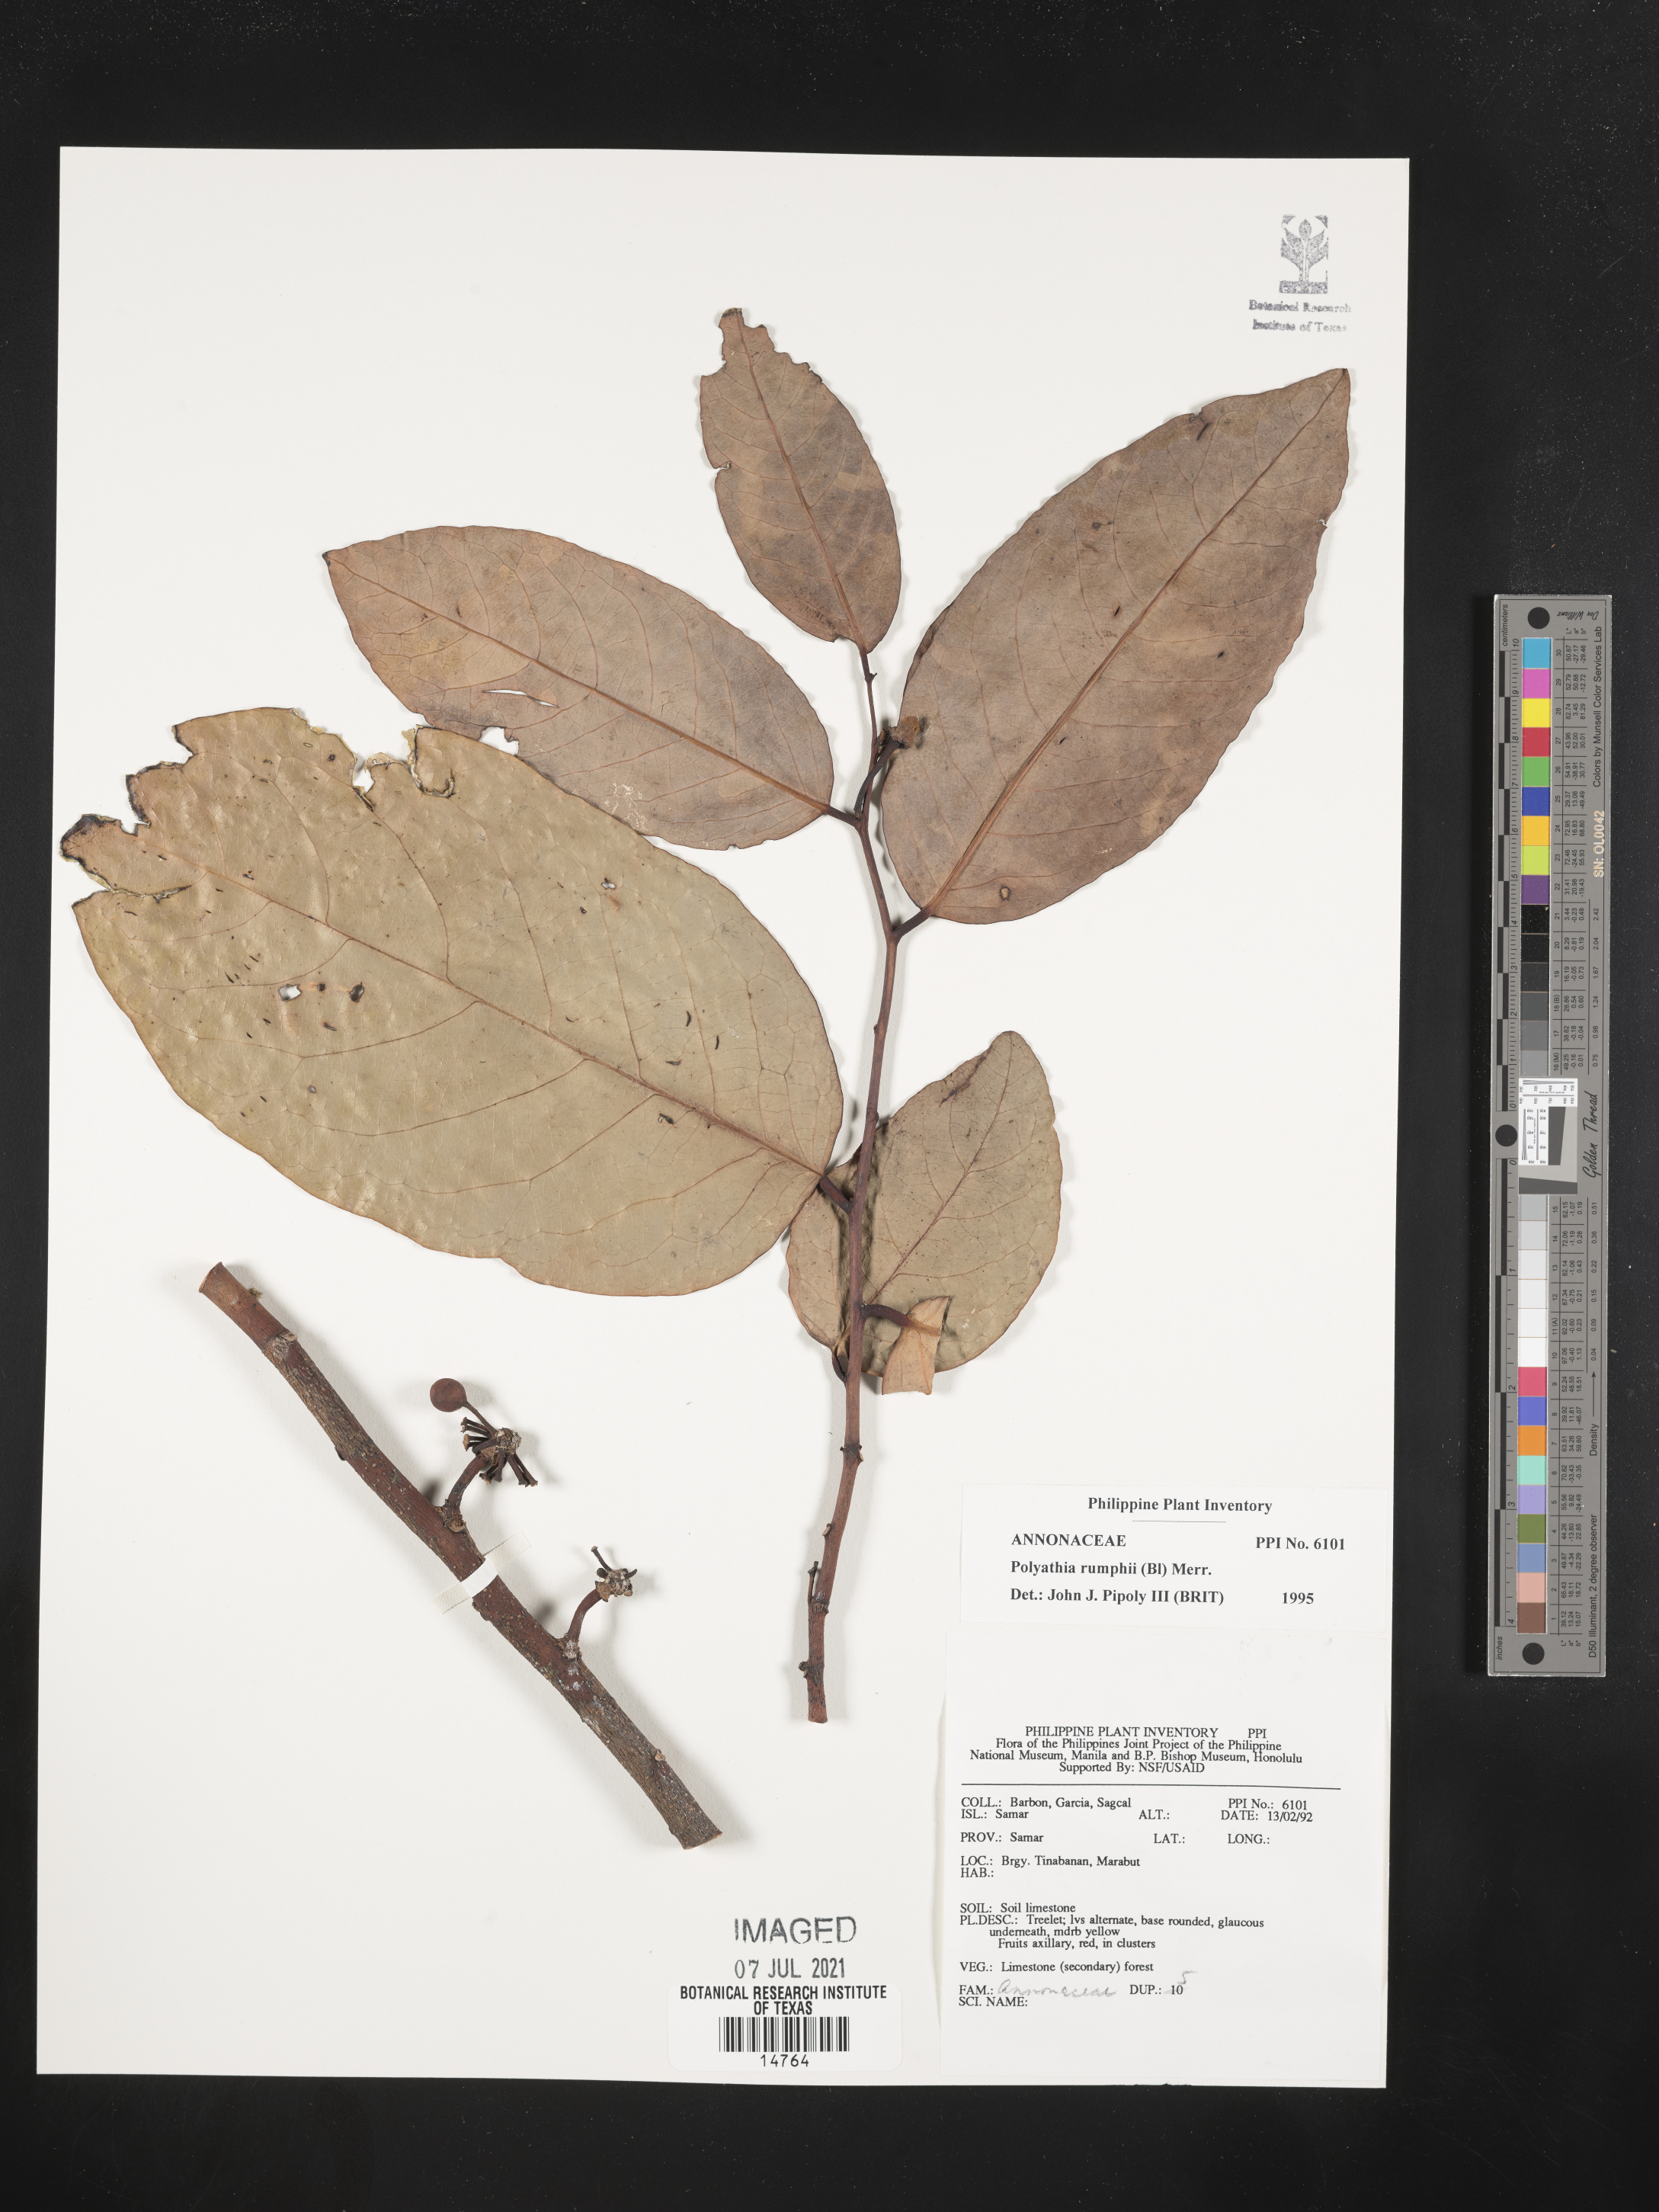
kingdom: Plantae
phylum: Tracheophyta
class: Magnoliopsida
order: Magnoliales
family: Annonaceae
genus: Hubera
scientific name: Hubera rumphii
